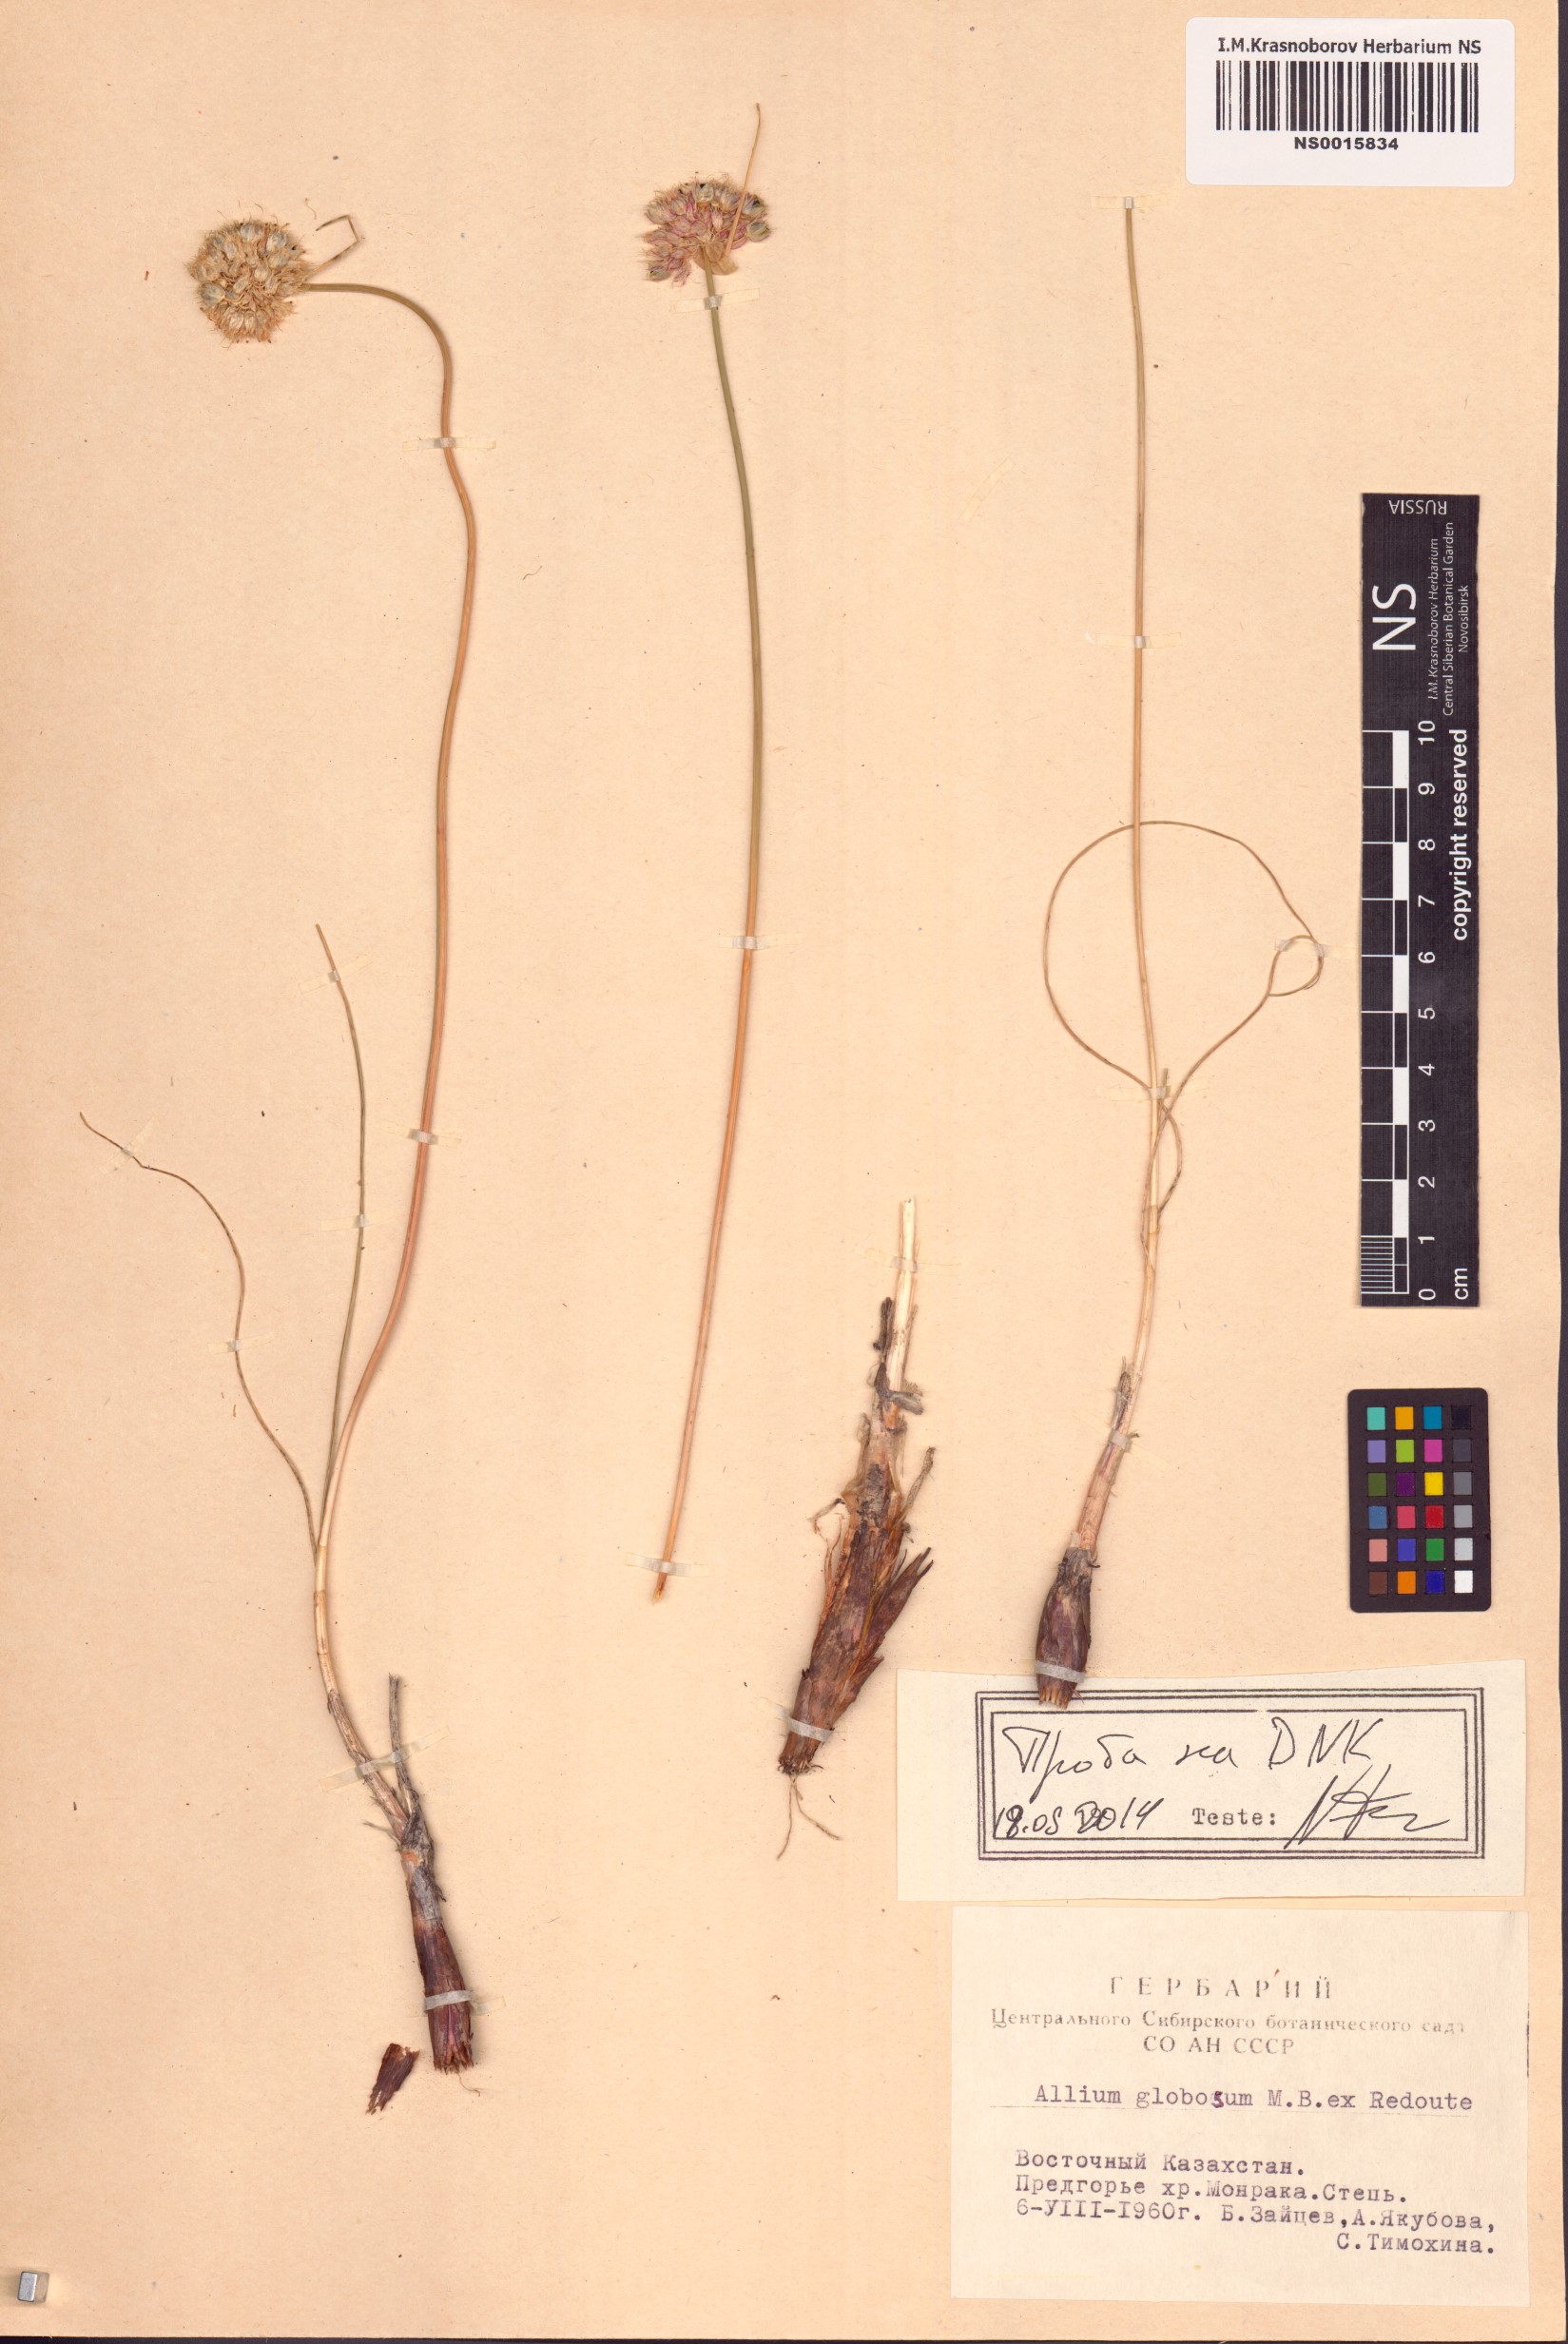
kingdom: Plantae
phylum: Tracheophyta
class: Liliopsida
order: Asparagales
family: Amaryllidaceae
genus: Allium
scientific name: Allium saxatile
